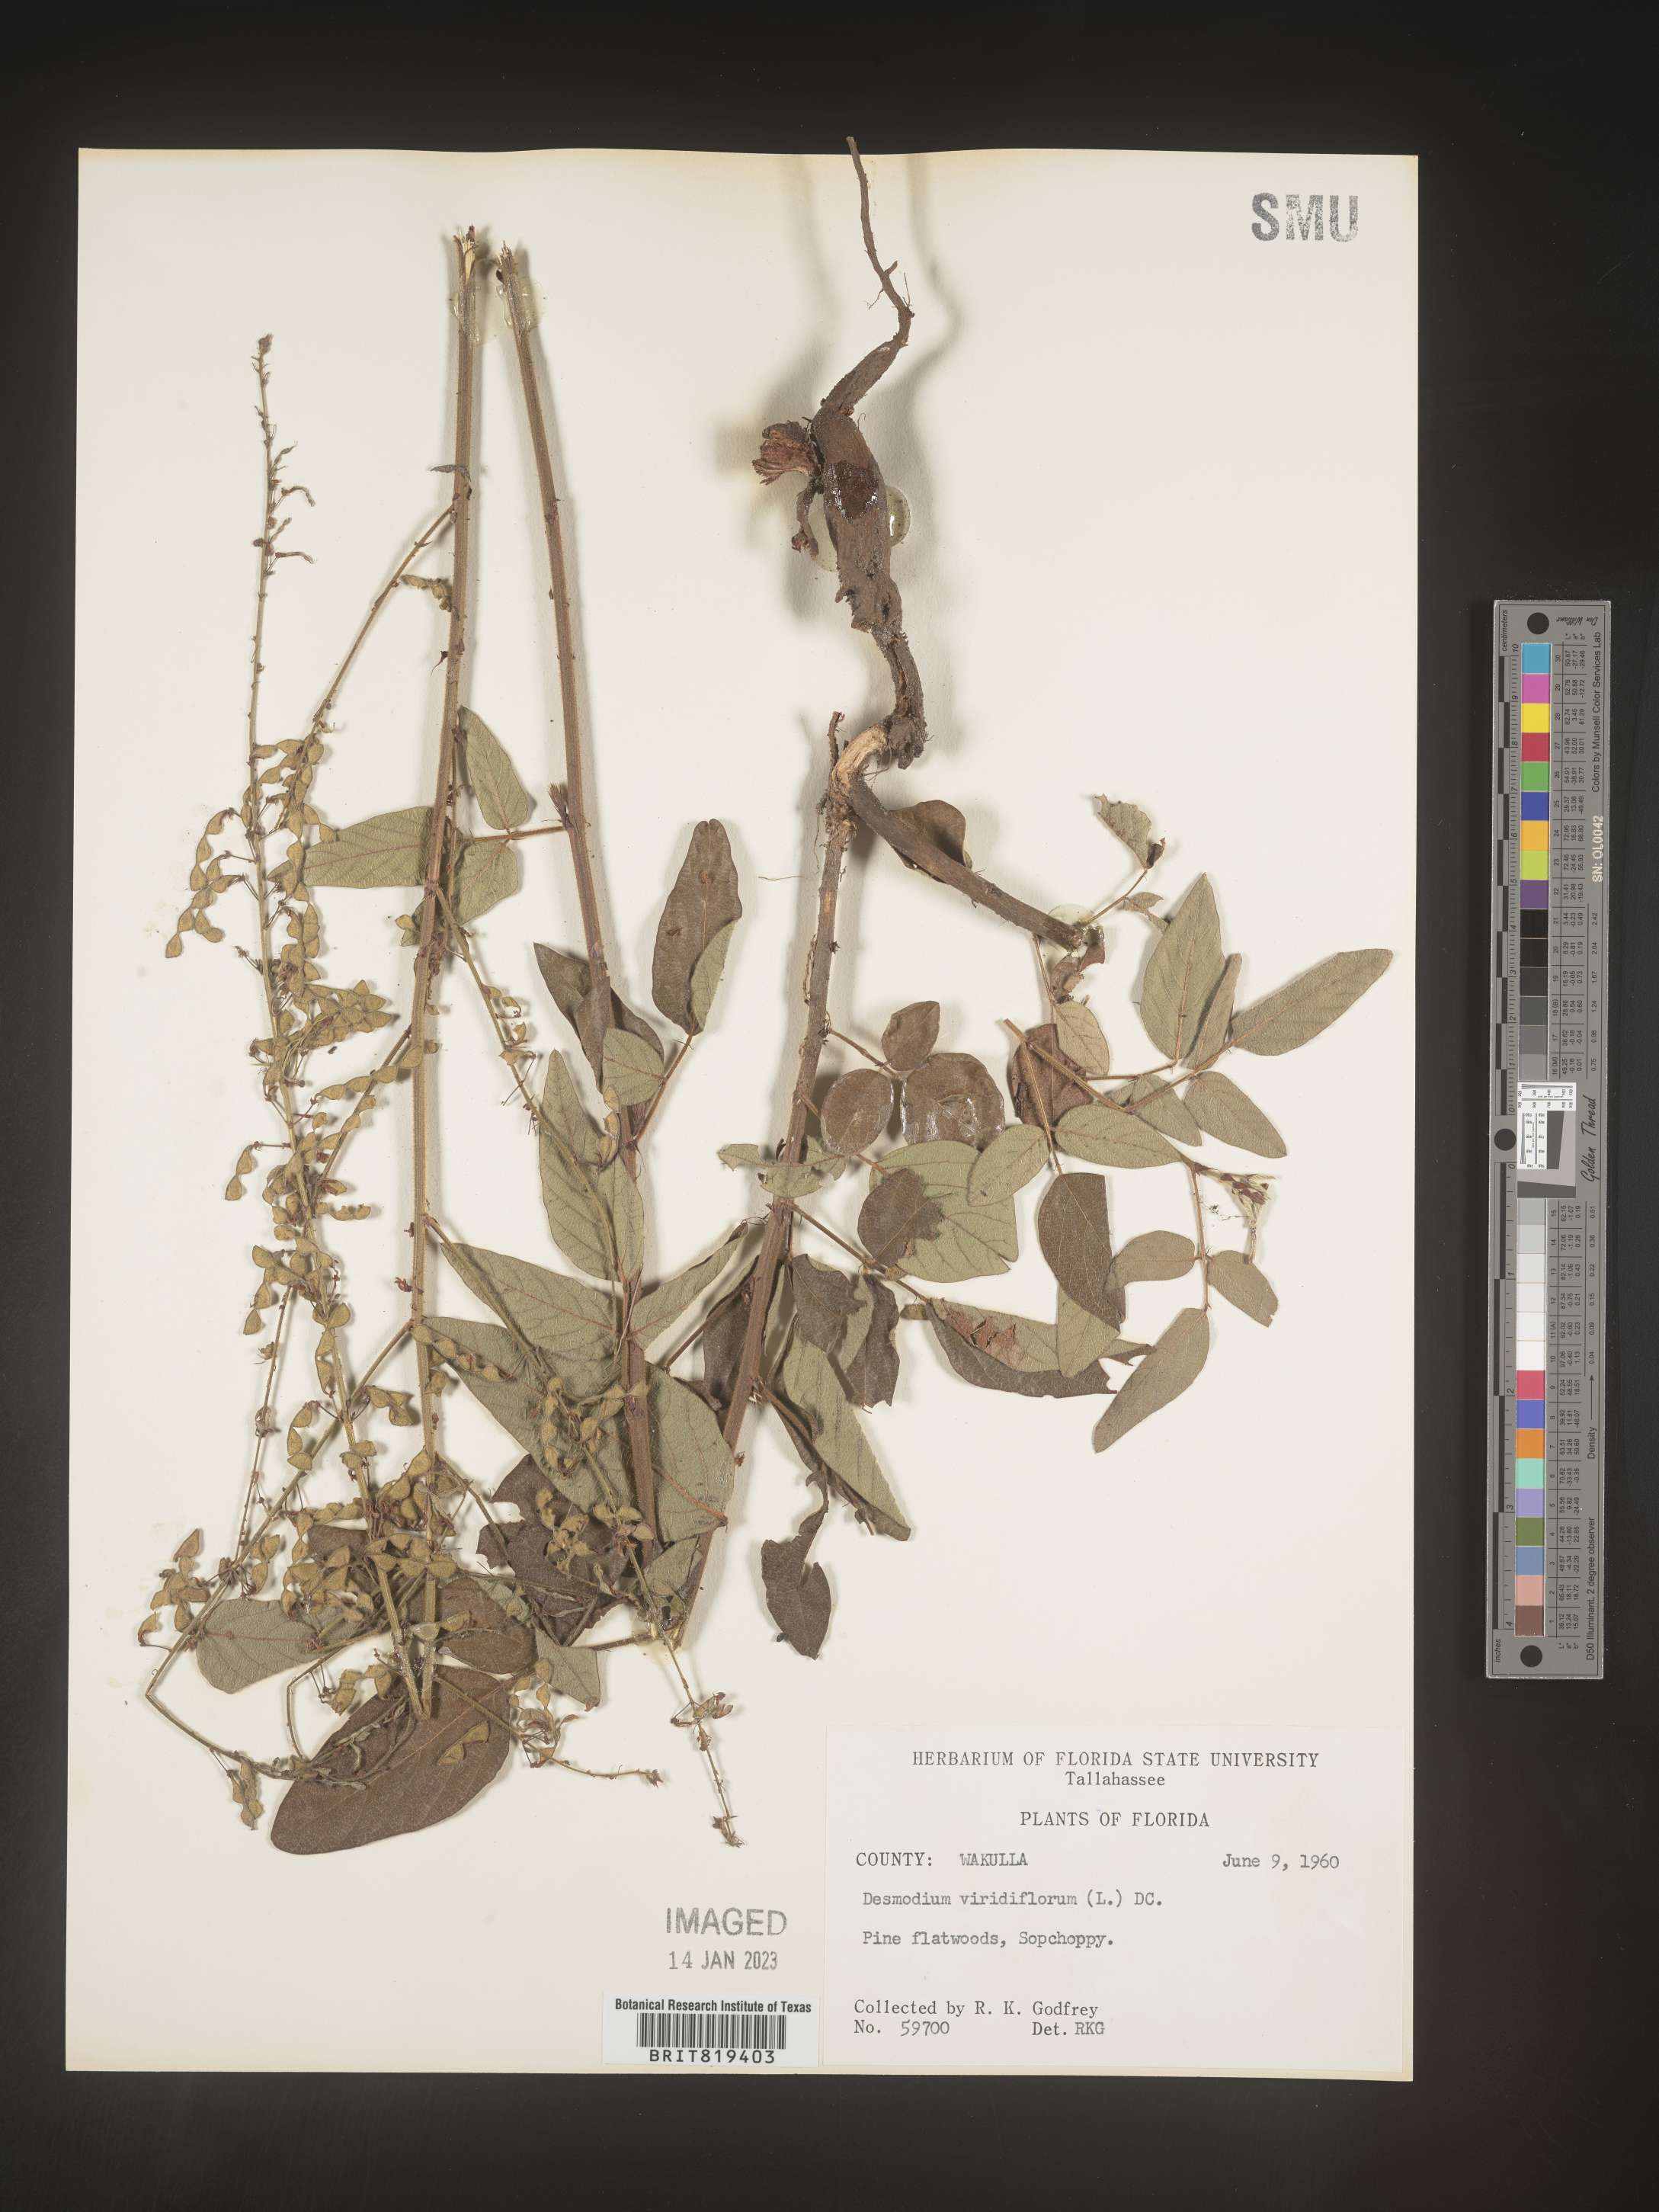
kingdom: Plantae
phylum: Tracheophyta
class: Magnoliopsida
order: Fabales
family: Fabaceae
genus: Desmodium
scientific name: Desmodium viridiflorum
